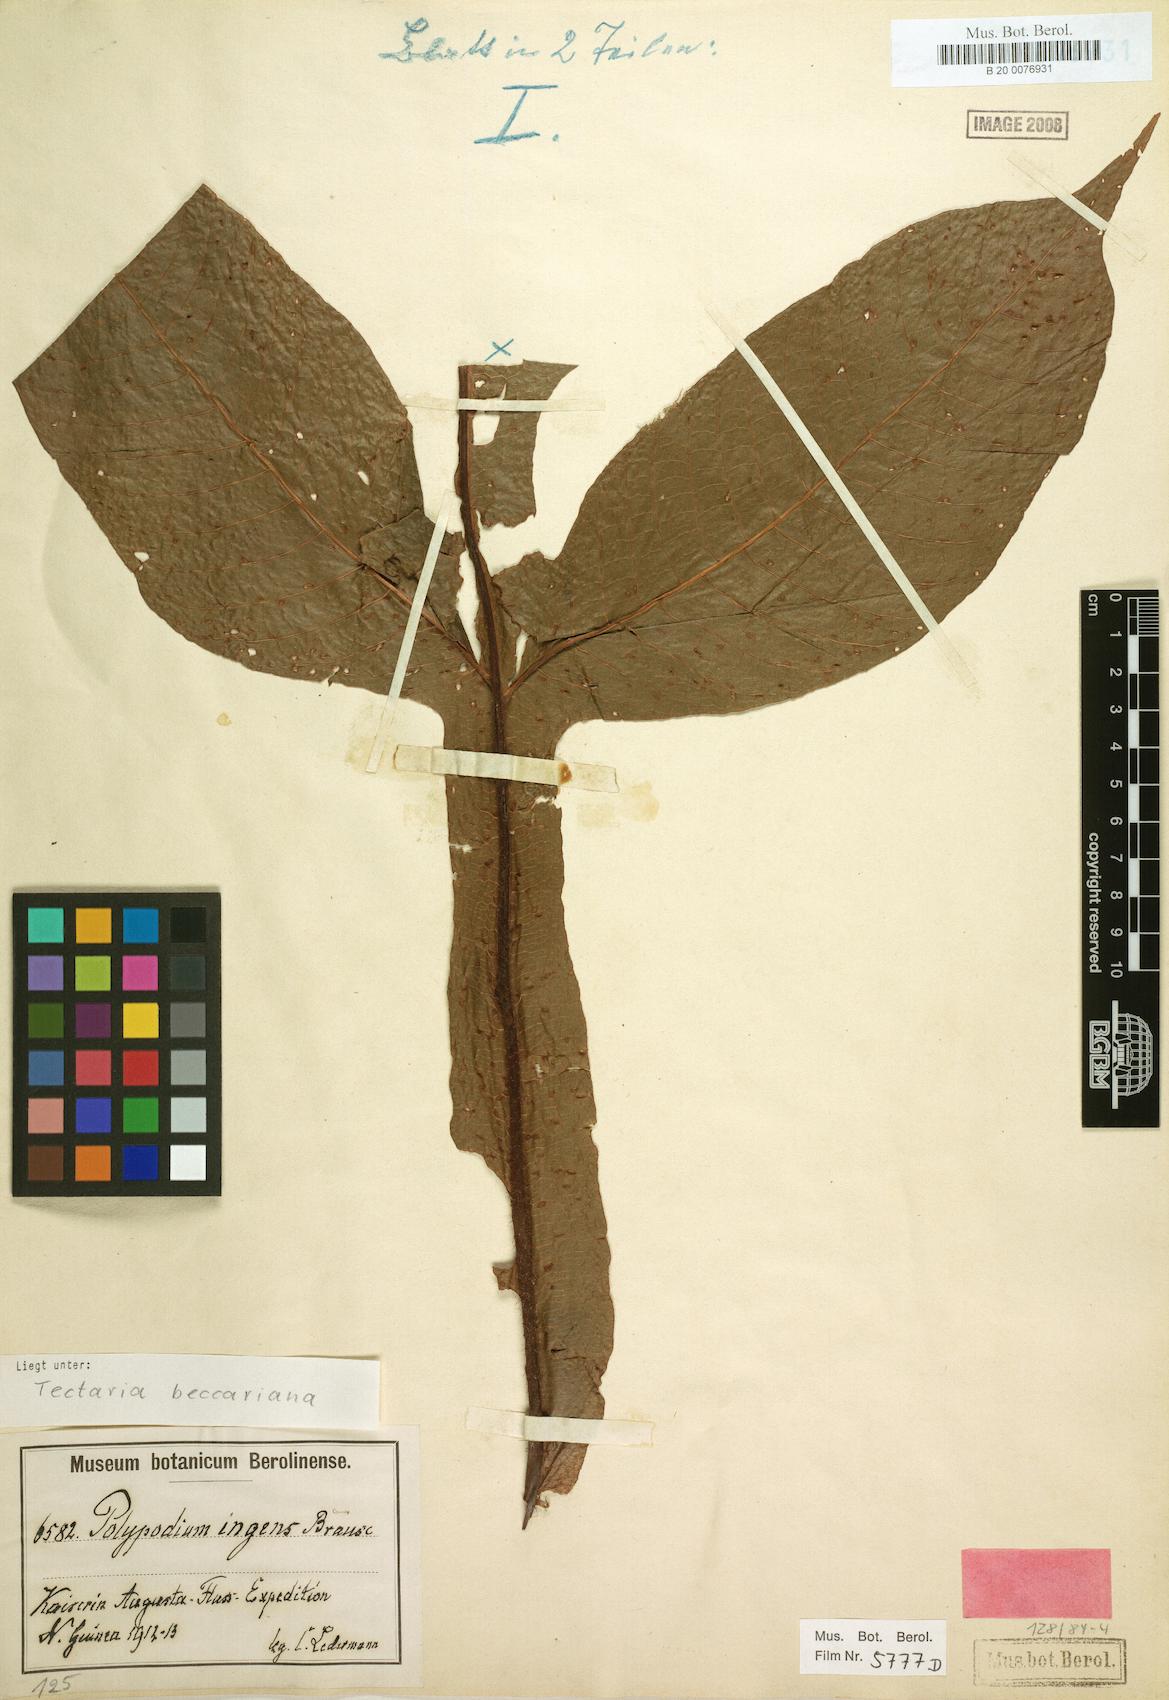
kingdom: Plantae
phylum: Tracheophyta
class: Polypodiopsida
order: Polypodiales
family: Tectariaceae
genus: Tectaria
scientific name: Tectaria beccariana
